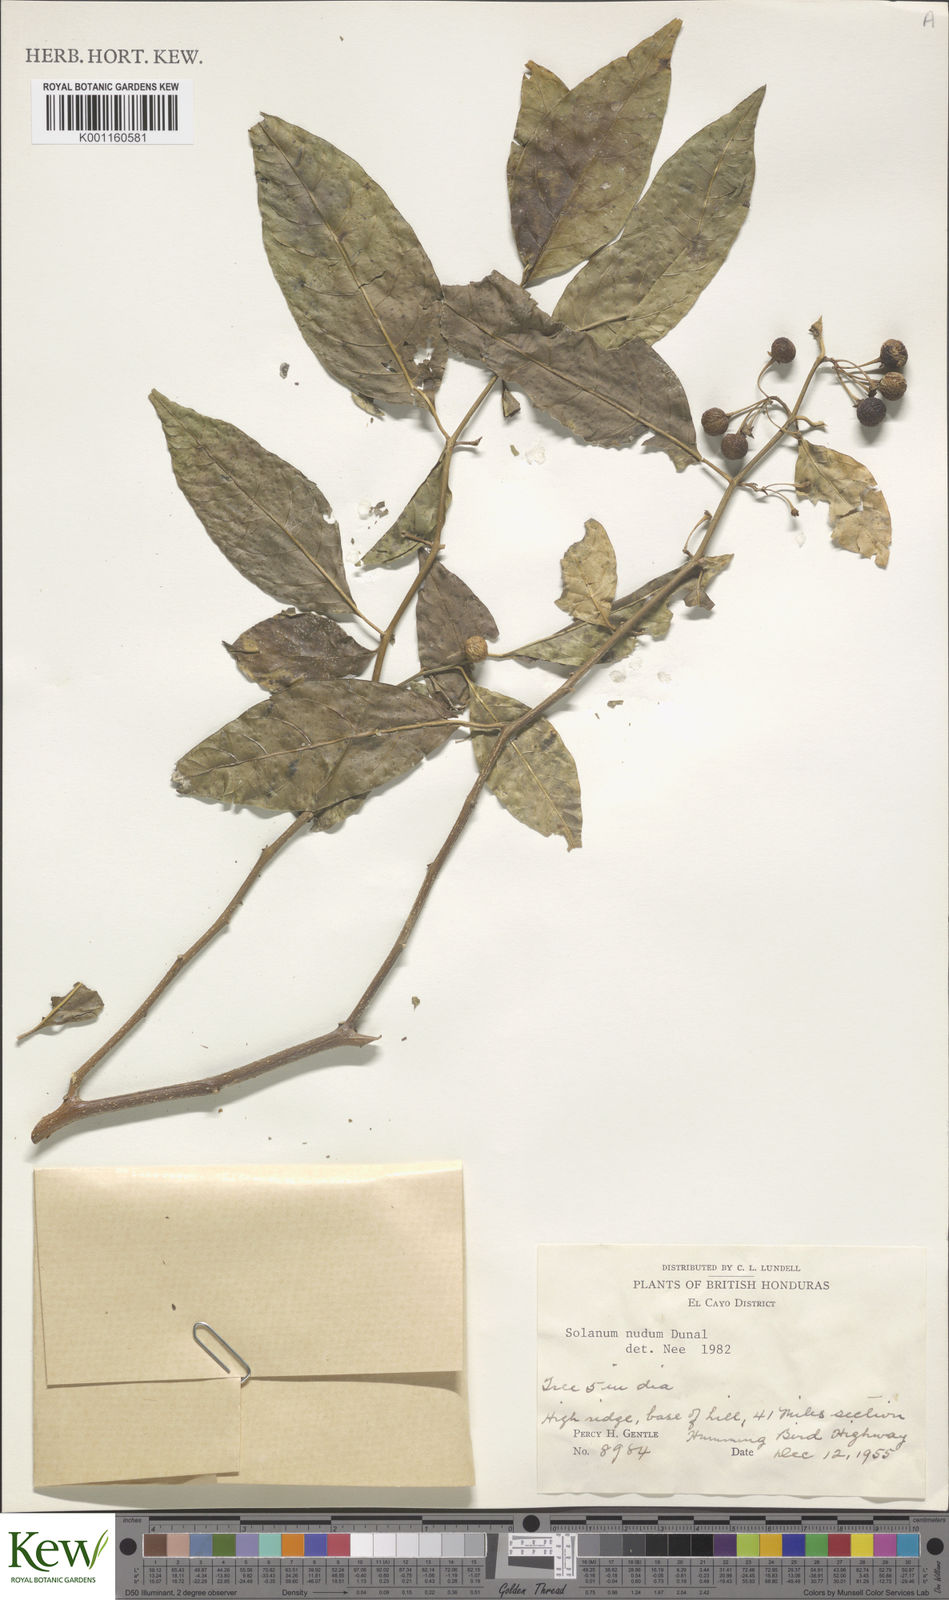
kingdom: Plantae
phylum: Tracheophyta
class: Magnoliopsida
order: Solanales
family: Solanaceae
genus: Solanum
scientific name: Solanum nudum
